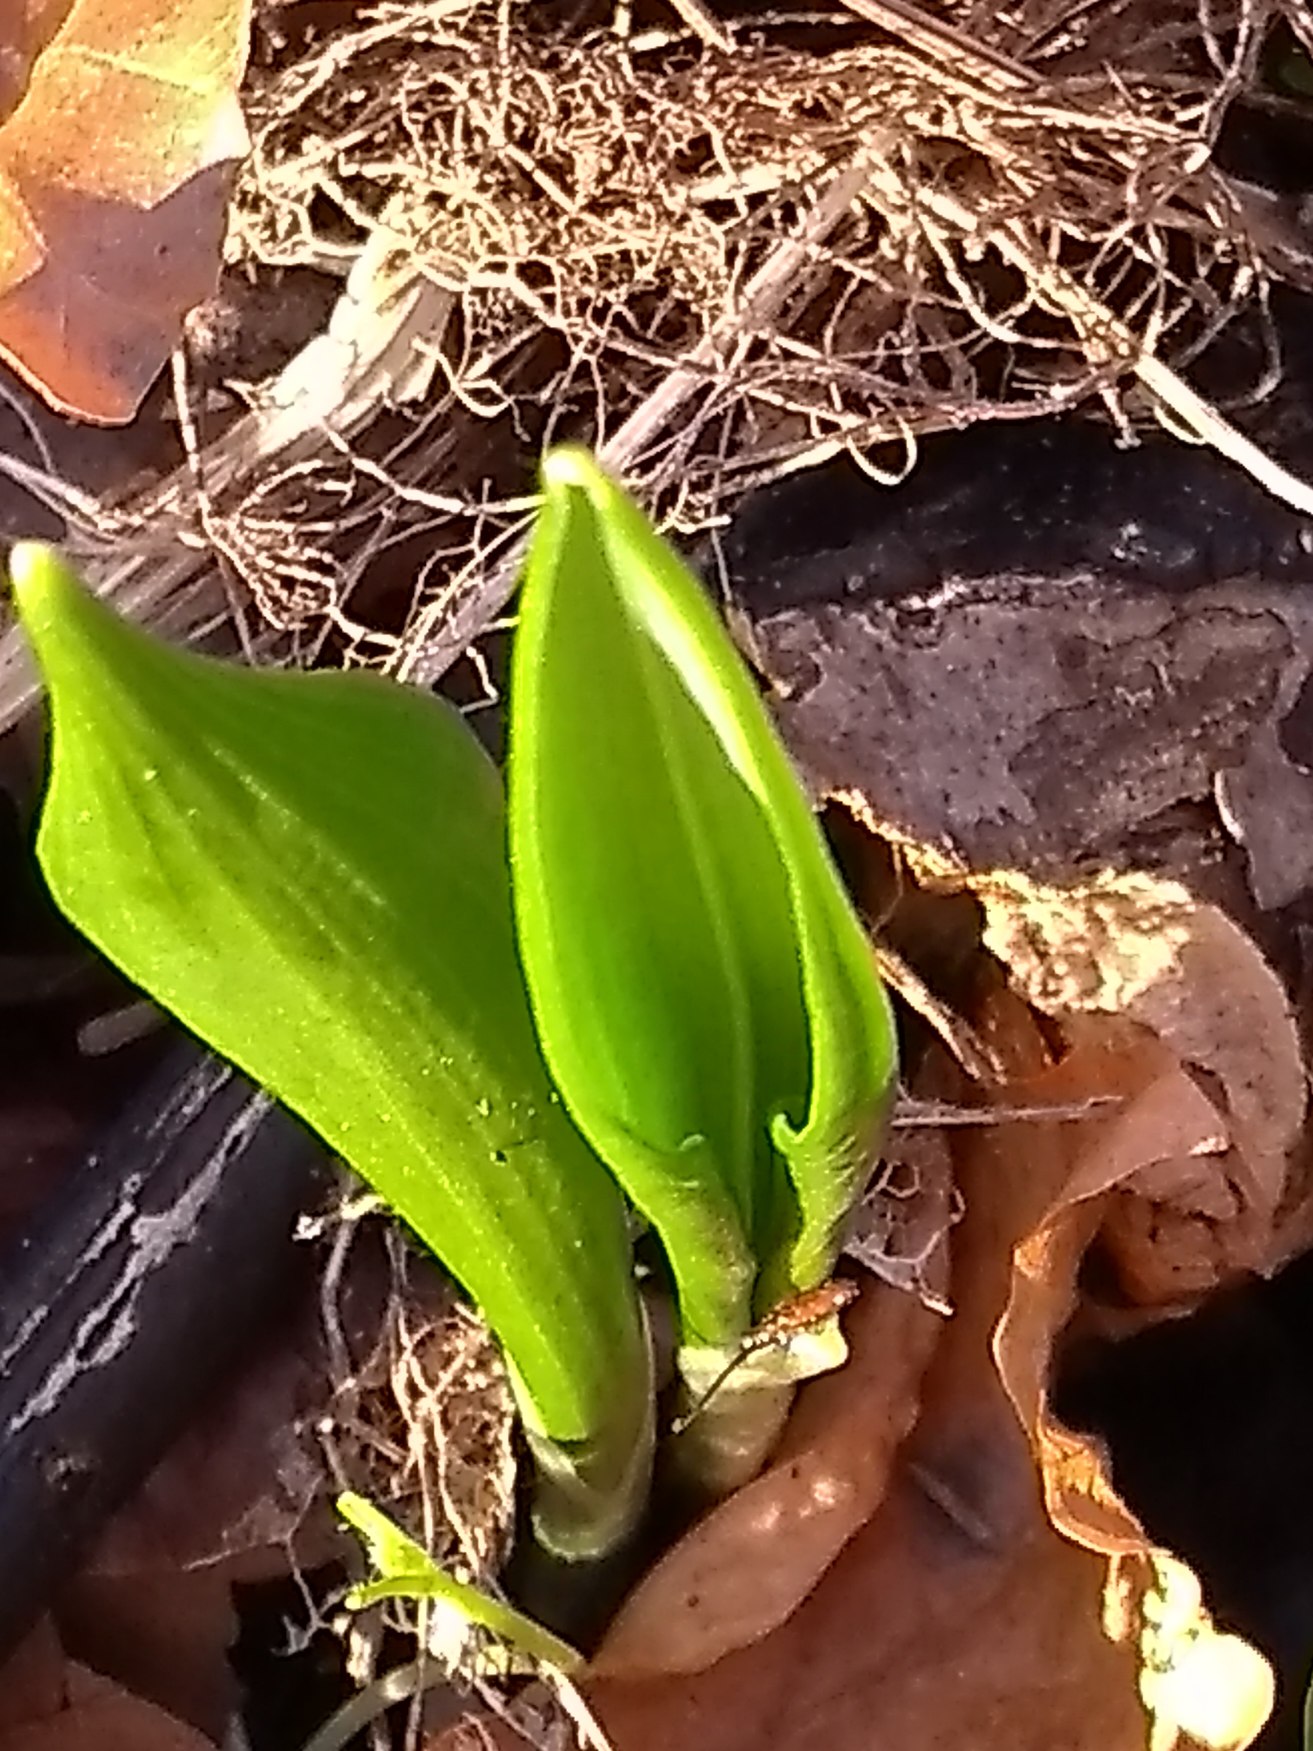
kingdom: Plantae
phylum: Tracheophyta
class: Liliopsida
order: Asparagales
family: Amaryllidaceae
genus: Allium
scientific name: Allium ursinum
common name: Rams-løg
